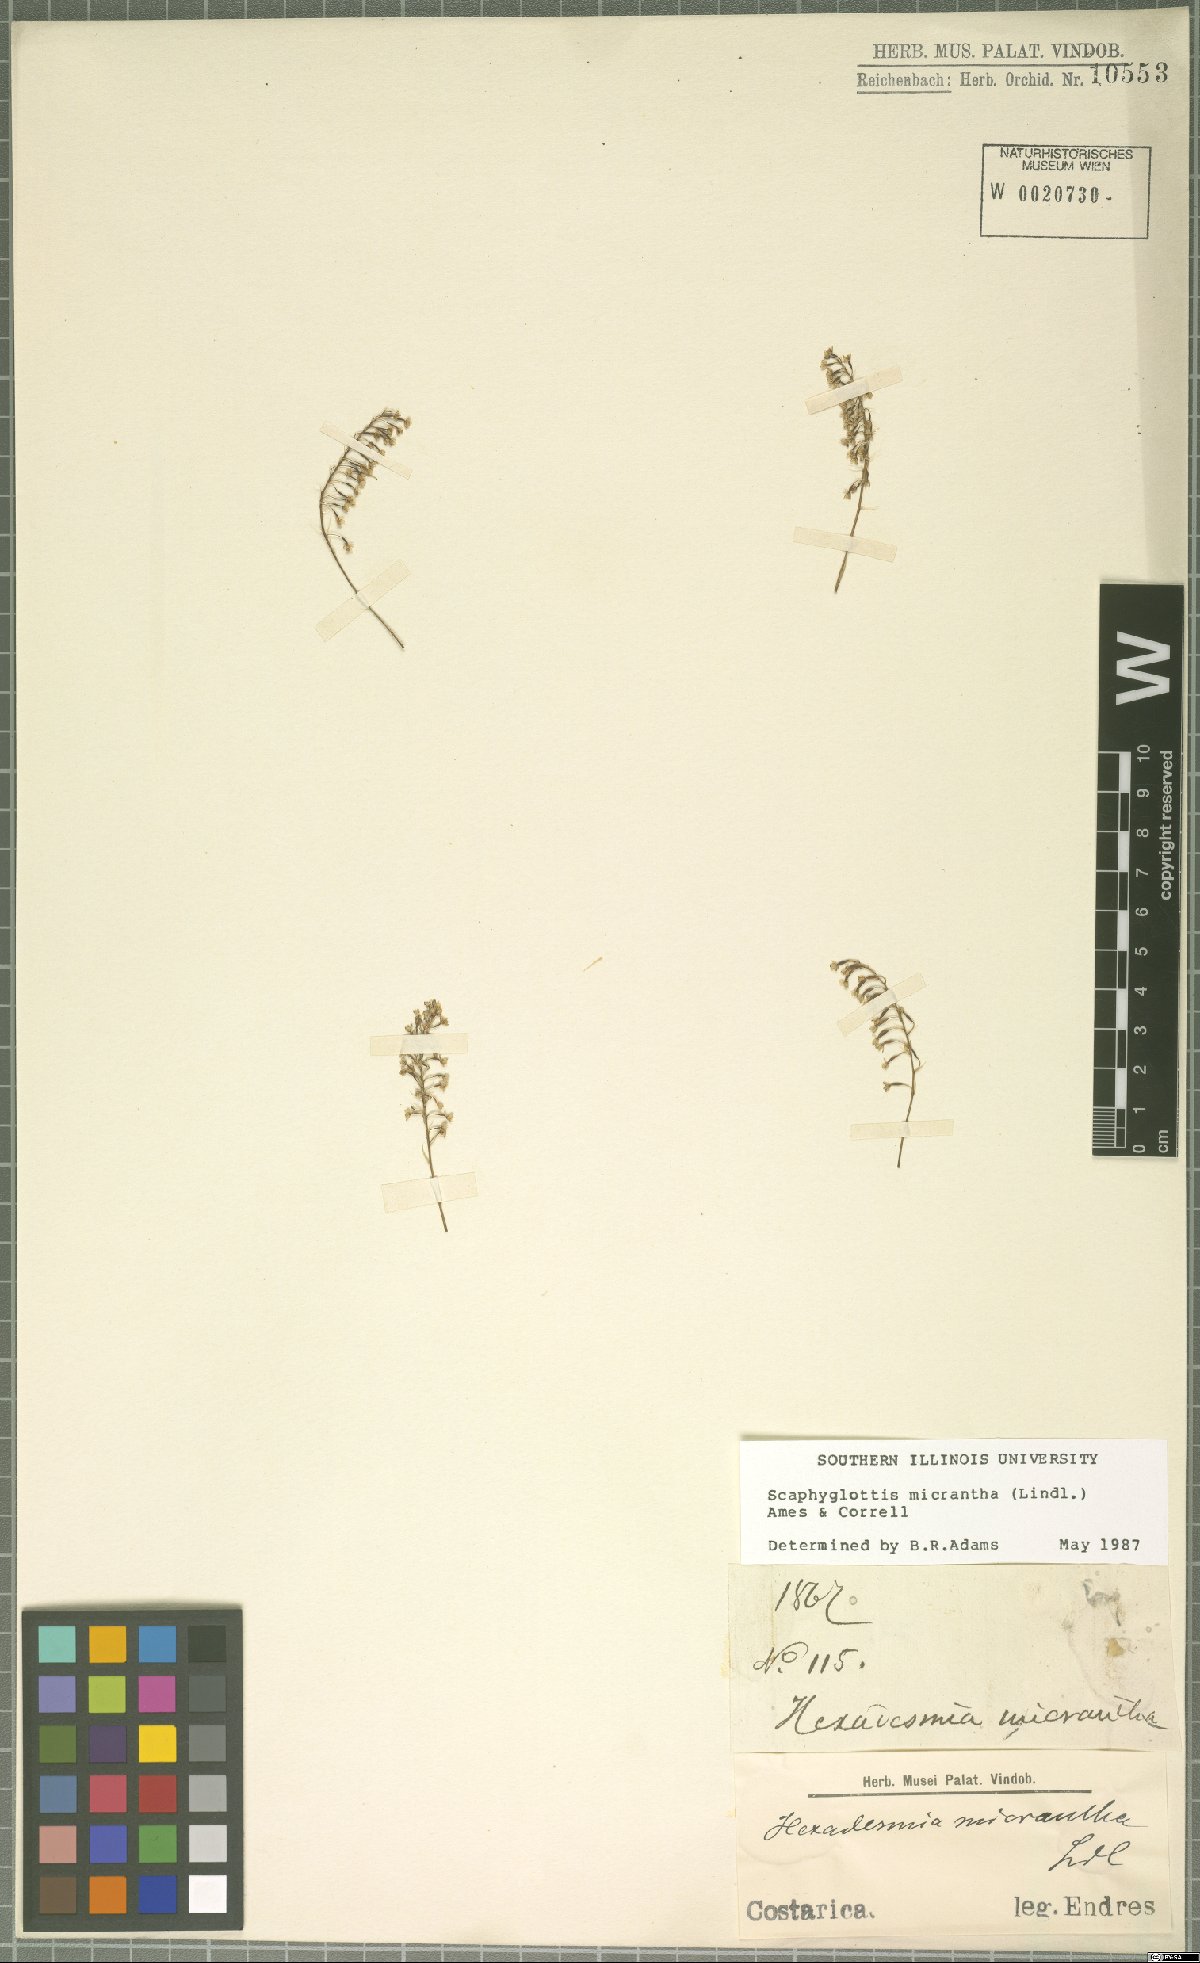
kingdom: Plantae
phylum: Tracheophyta
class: Liliopsida
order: Asparagales
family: Orchidaceae
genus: Scaphyglottis
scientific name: Scaphyglottis micrantha
